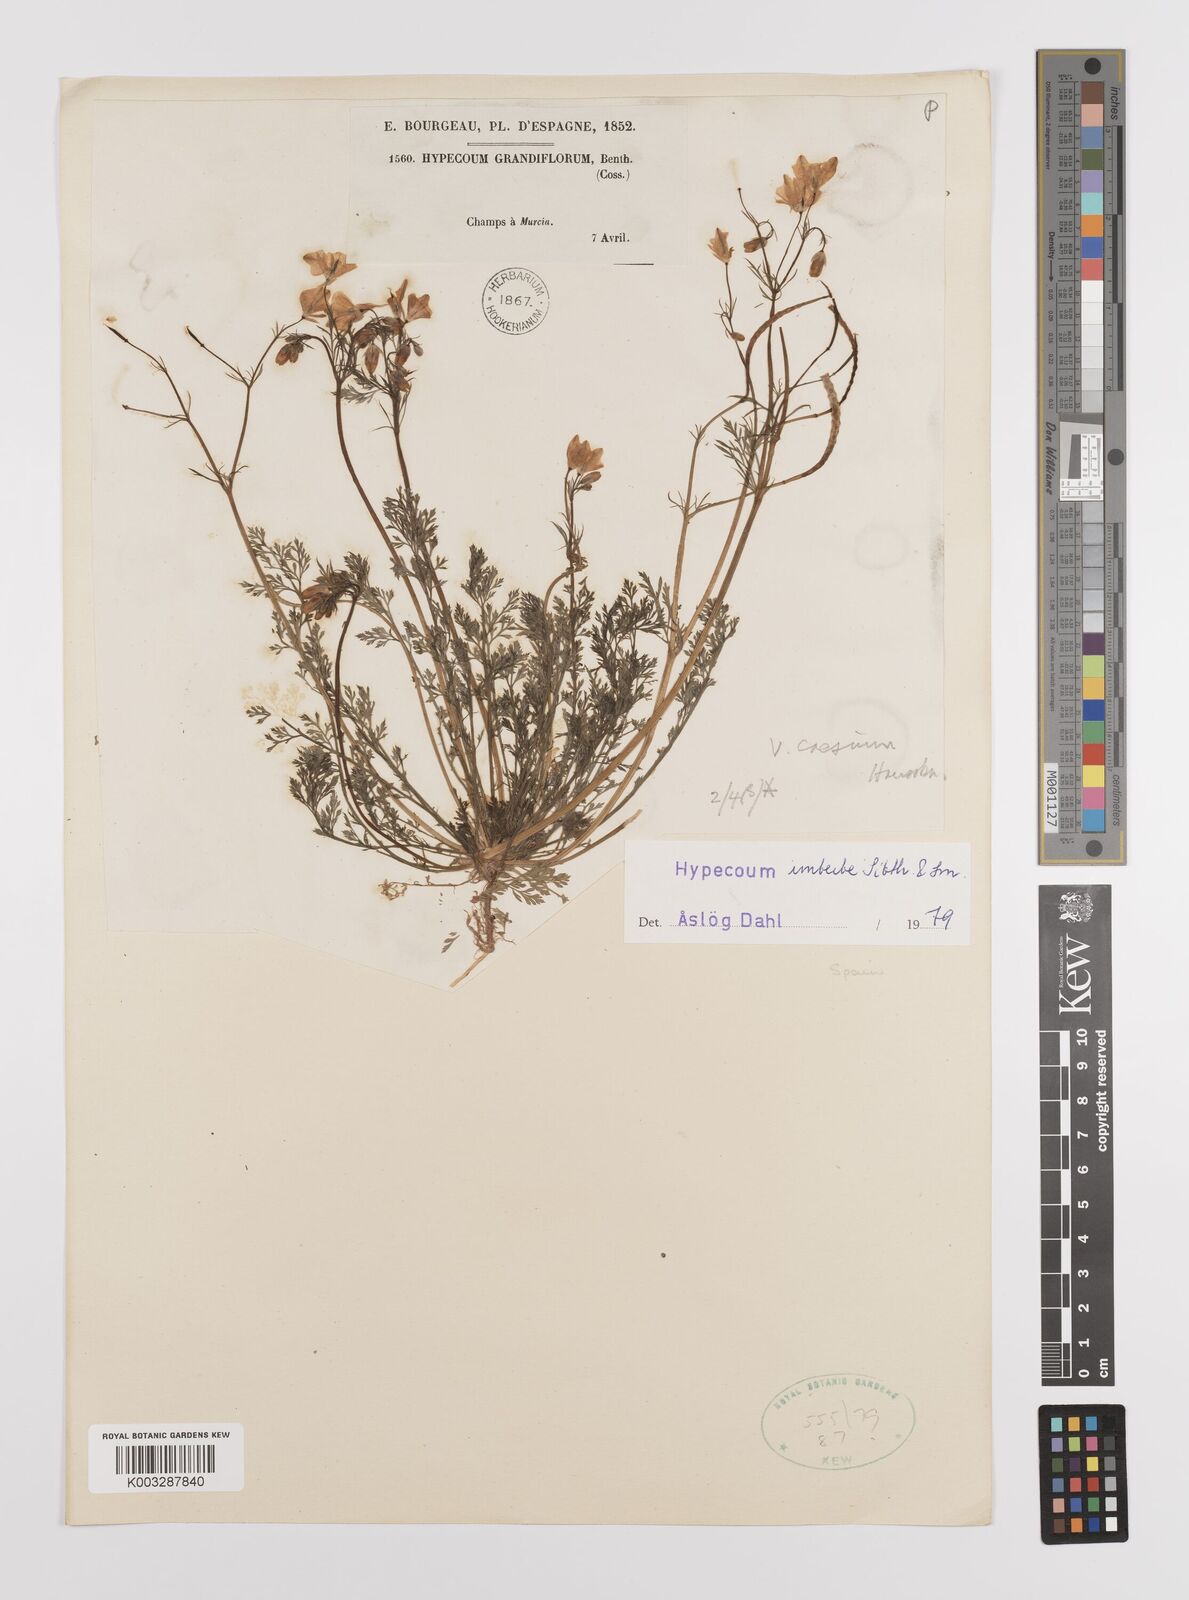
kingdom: Plantae
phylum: Tracheophyta
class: Magnoliopsida
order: Ranunculales
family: Papaveraceae
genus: Hypecoum
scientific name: Hypecoum imberbe
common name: Sicklefruit hypecoum
